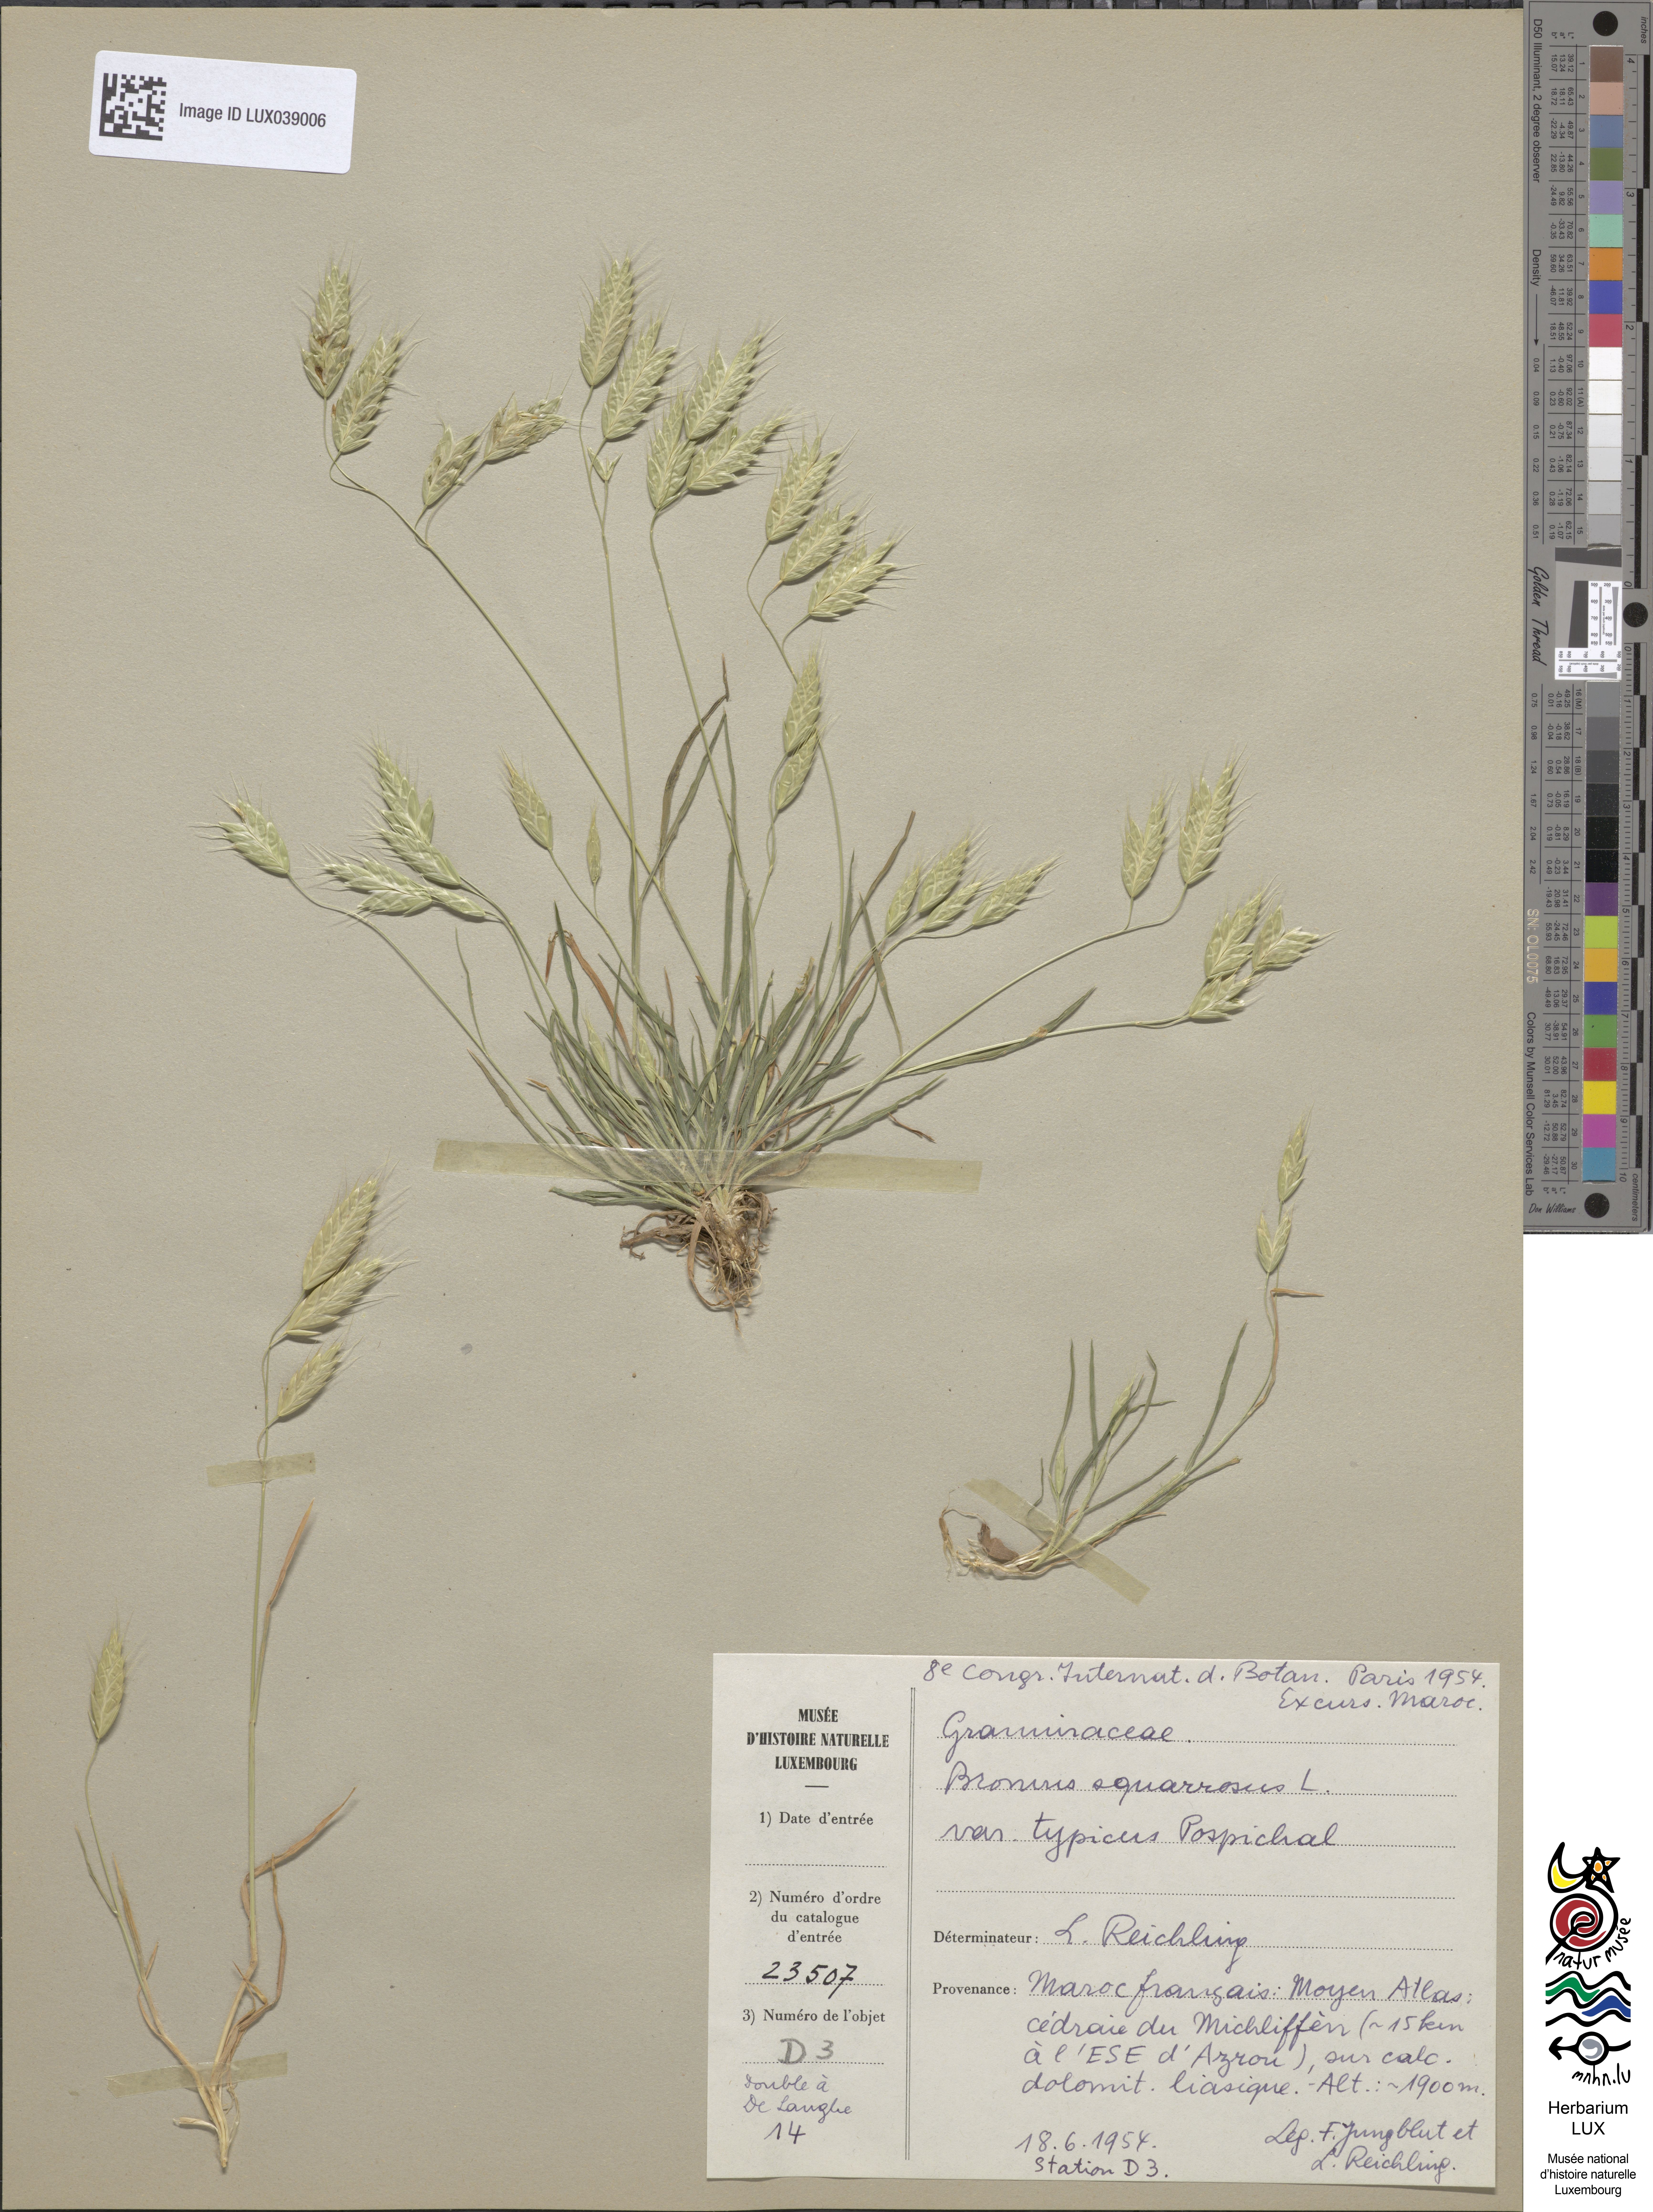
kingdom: Plantae
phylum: Tracheophyta
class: Liliopsida
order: Poales
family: Poaceae
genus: Bromus
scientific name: Bromus squarrosus
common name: Corn brome
